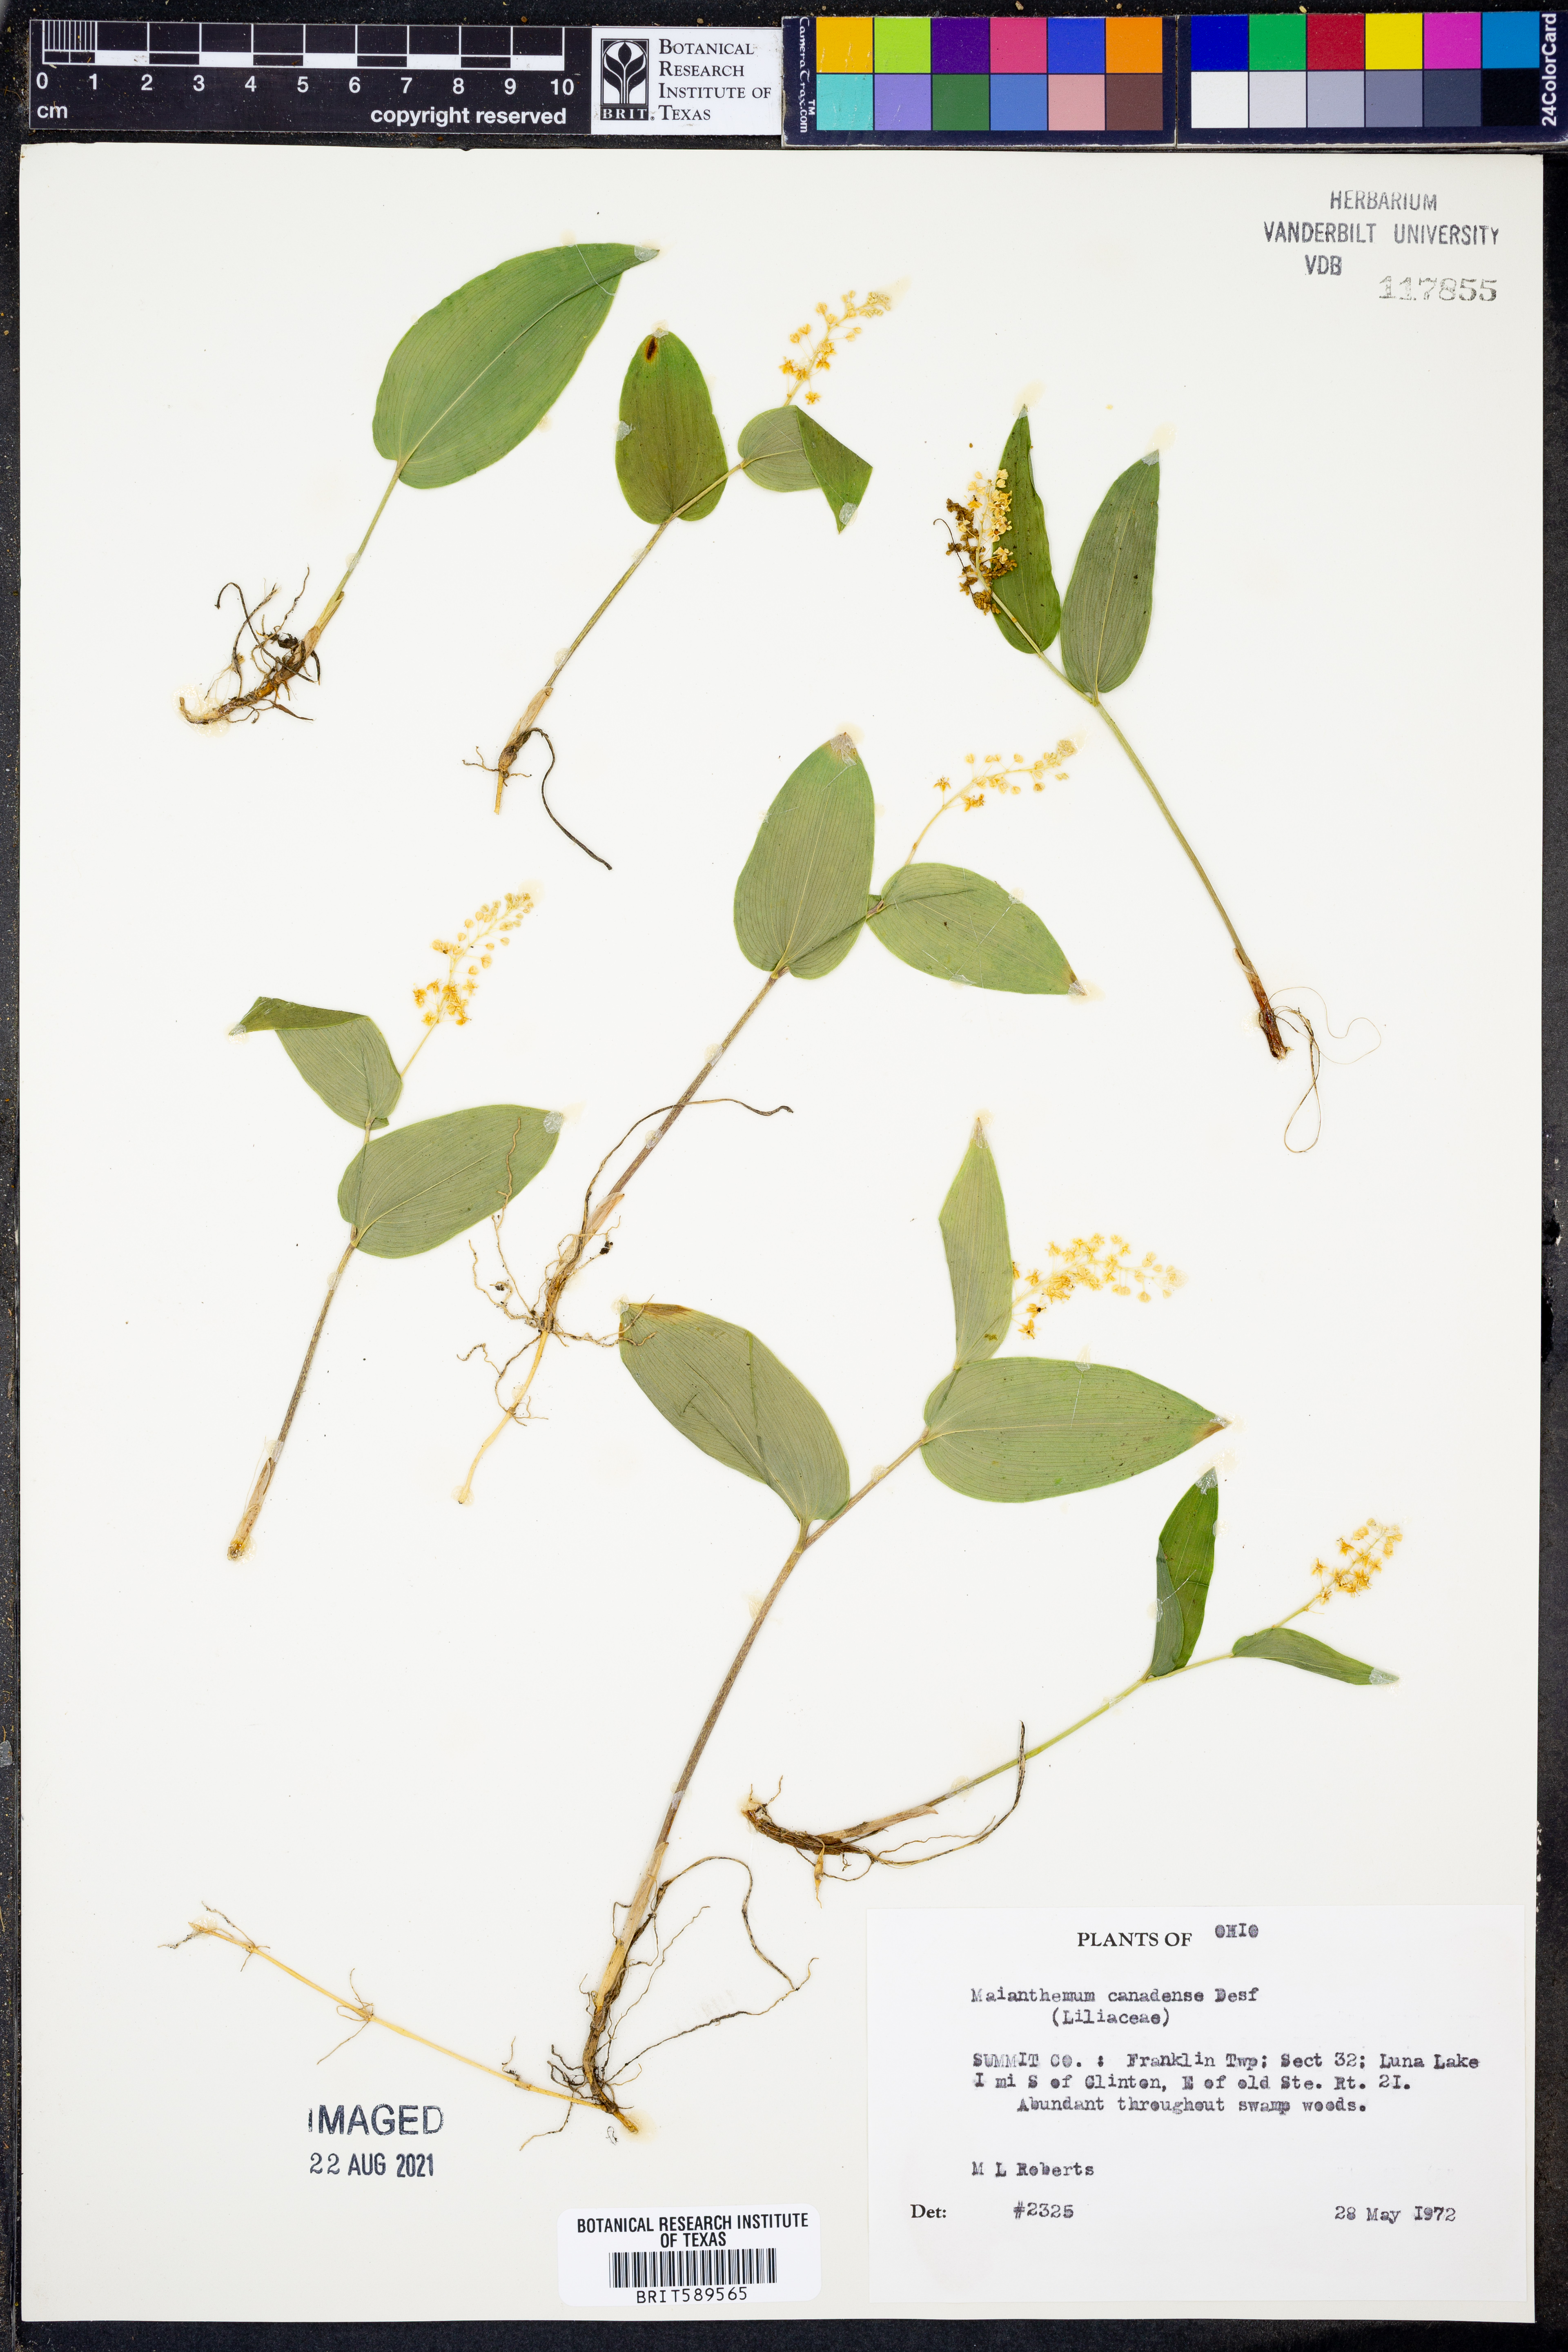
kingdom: Plantae
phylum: Tracheophyta
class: Liliopsida
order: Asparagales
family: Asparagaceae
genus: Maianthemum
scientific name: Maianthemum canadense
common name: False lily-of-the-valley
